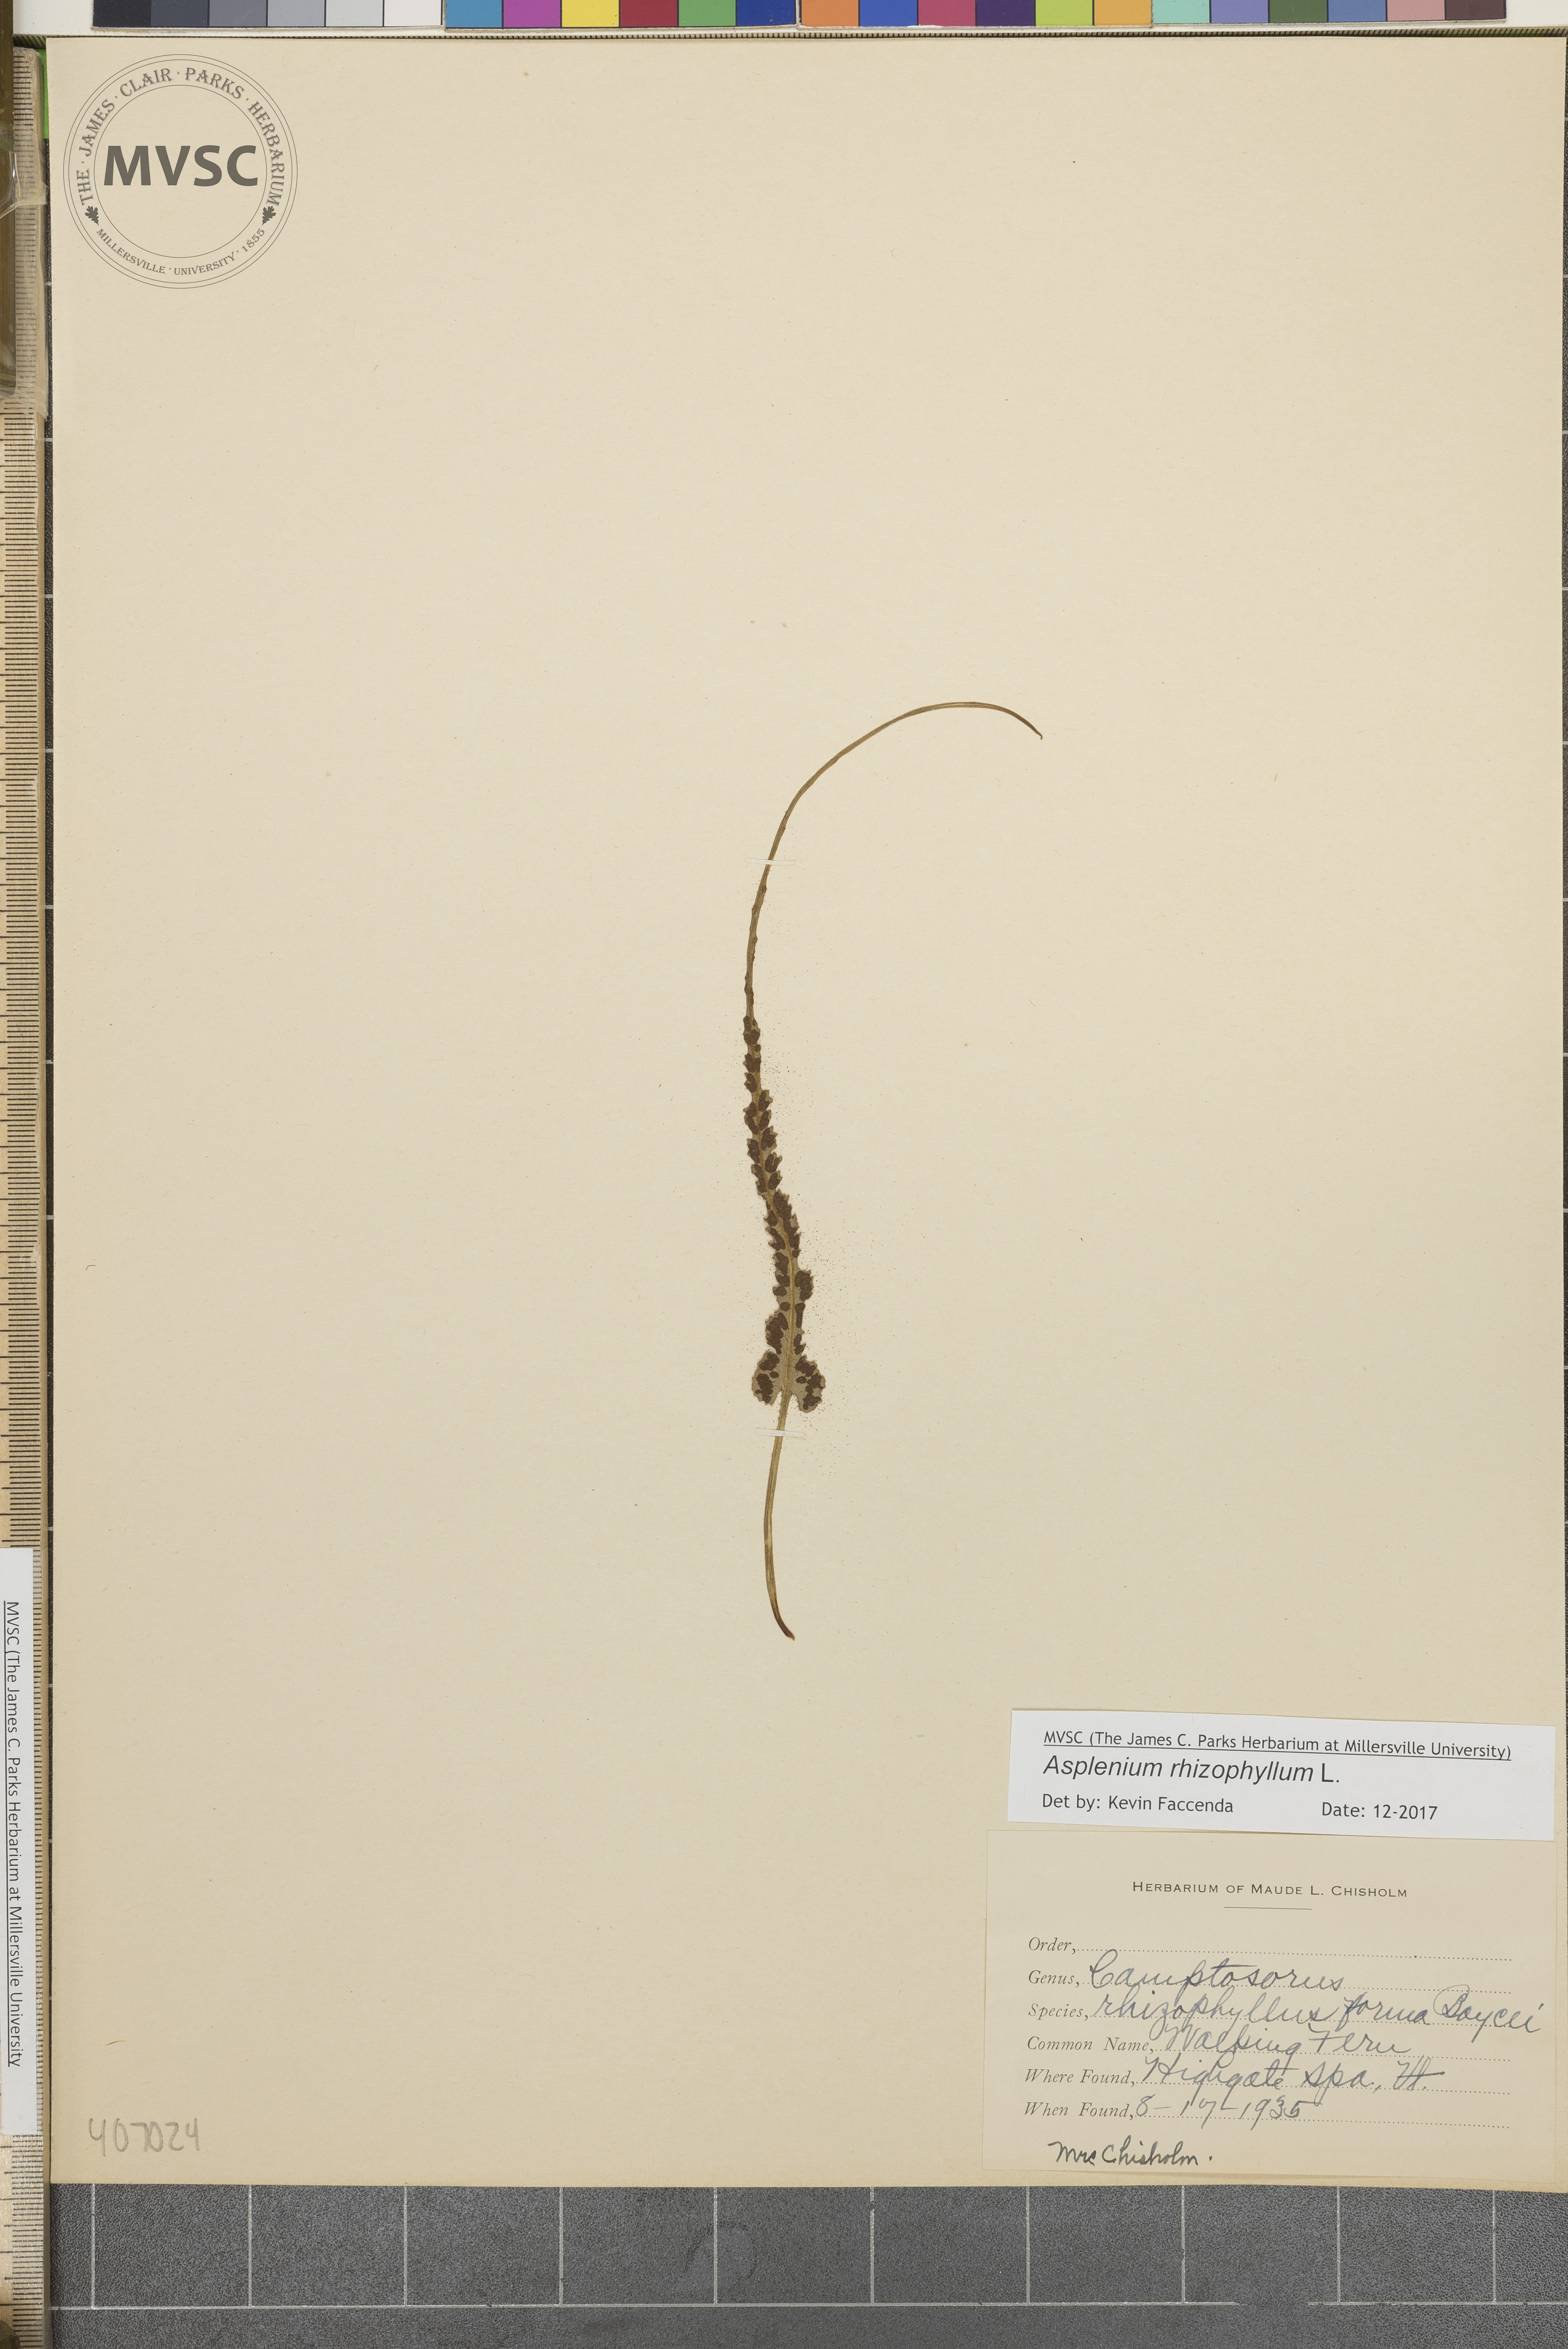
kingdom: Plantae
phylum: Tracheophyta
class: Polypodiopsida
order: Polypodiales
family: Aspleniaceae
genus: Asplenium
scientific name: Asplenium rhizophyllum
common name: Walking fern
